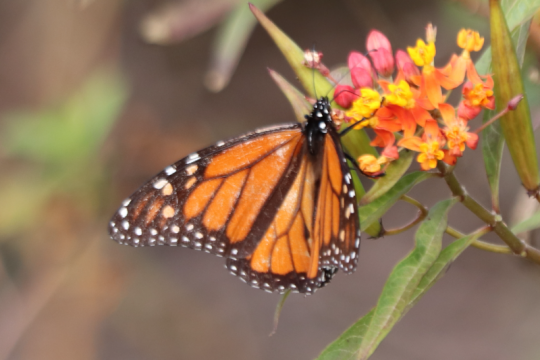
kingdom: Animalia
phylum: Arthropoda
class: Insecta
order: Lepidoptera
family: Nymphalidae
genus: Danaus
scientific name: Danaus plexippus
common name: Monarch
